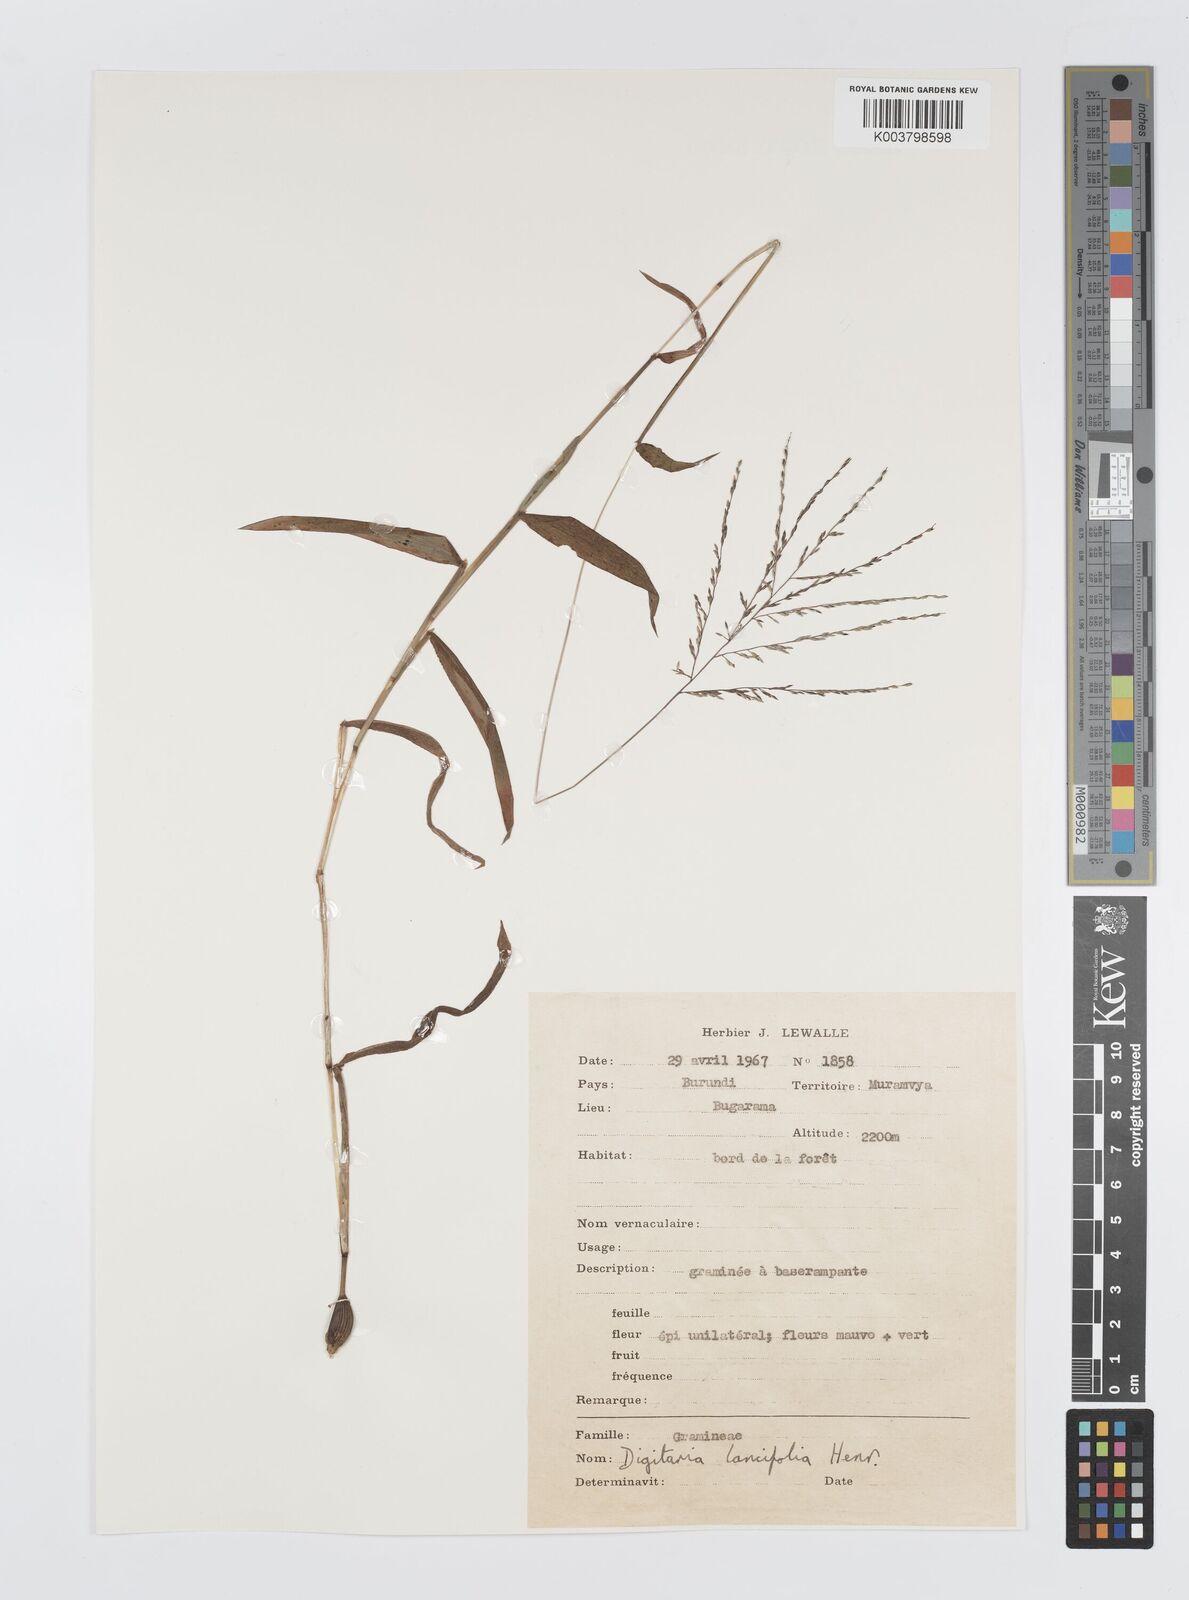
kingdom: Plantae
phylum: Tracheophyta
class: Liliopsida
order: Poales
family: Poaceae
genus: Digitaria
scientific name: Digitaria pearsonii
